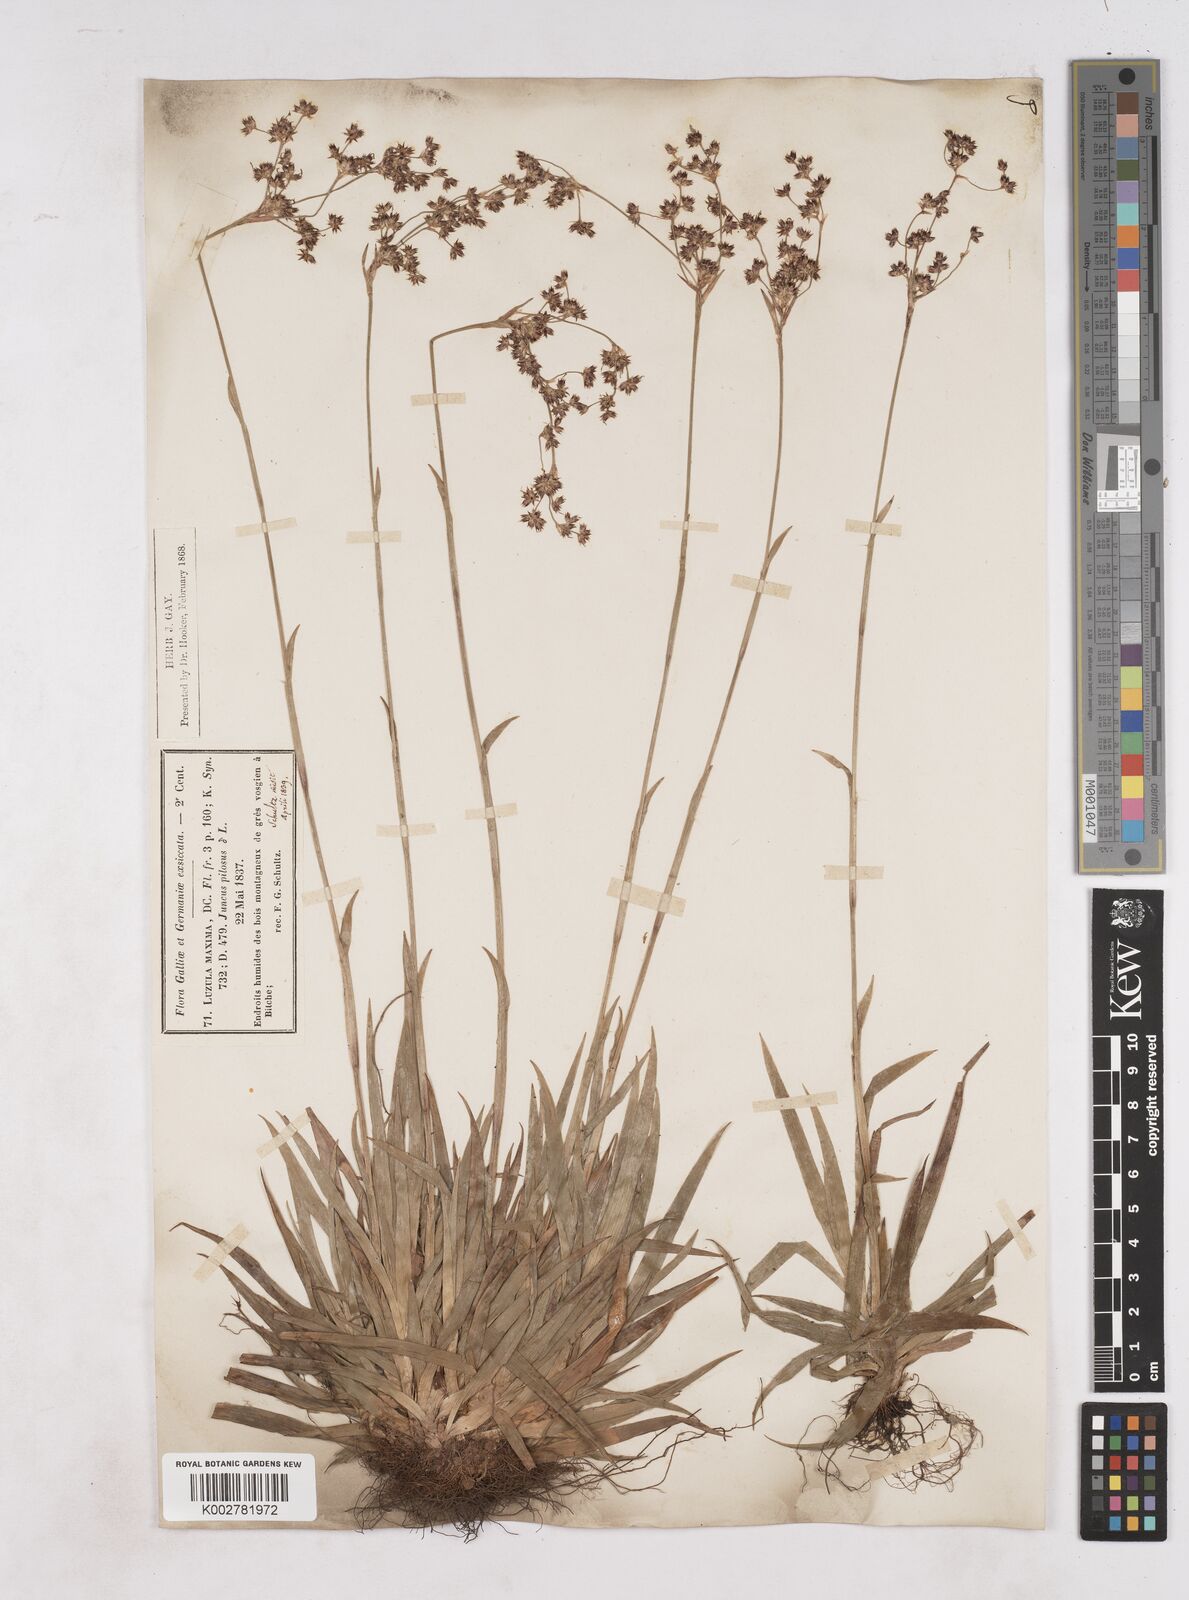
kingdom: Plantae
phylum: Tracheophyta
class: Liliopsida
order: Poales
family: Juncaceae
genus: Luzula
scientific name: Luzula sylvatica
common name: Great wood-rush
